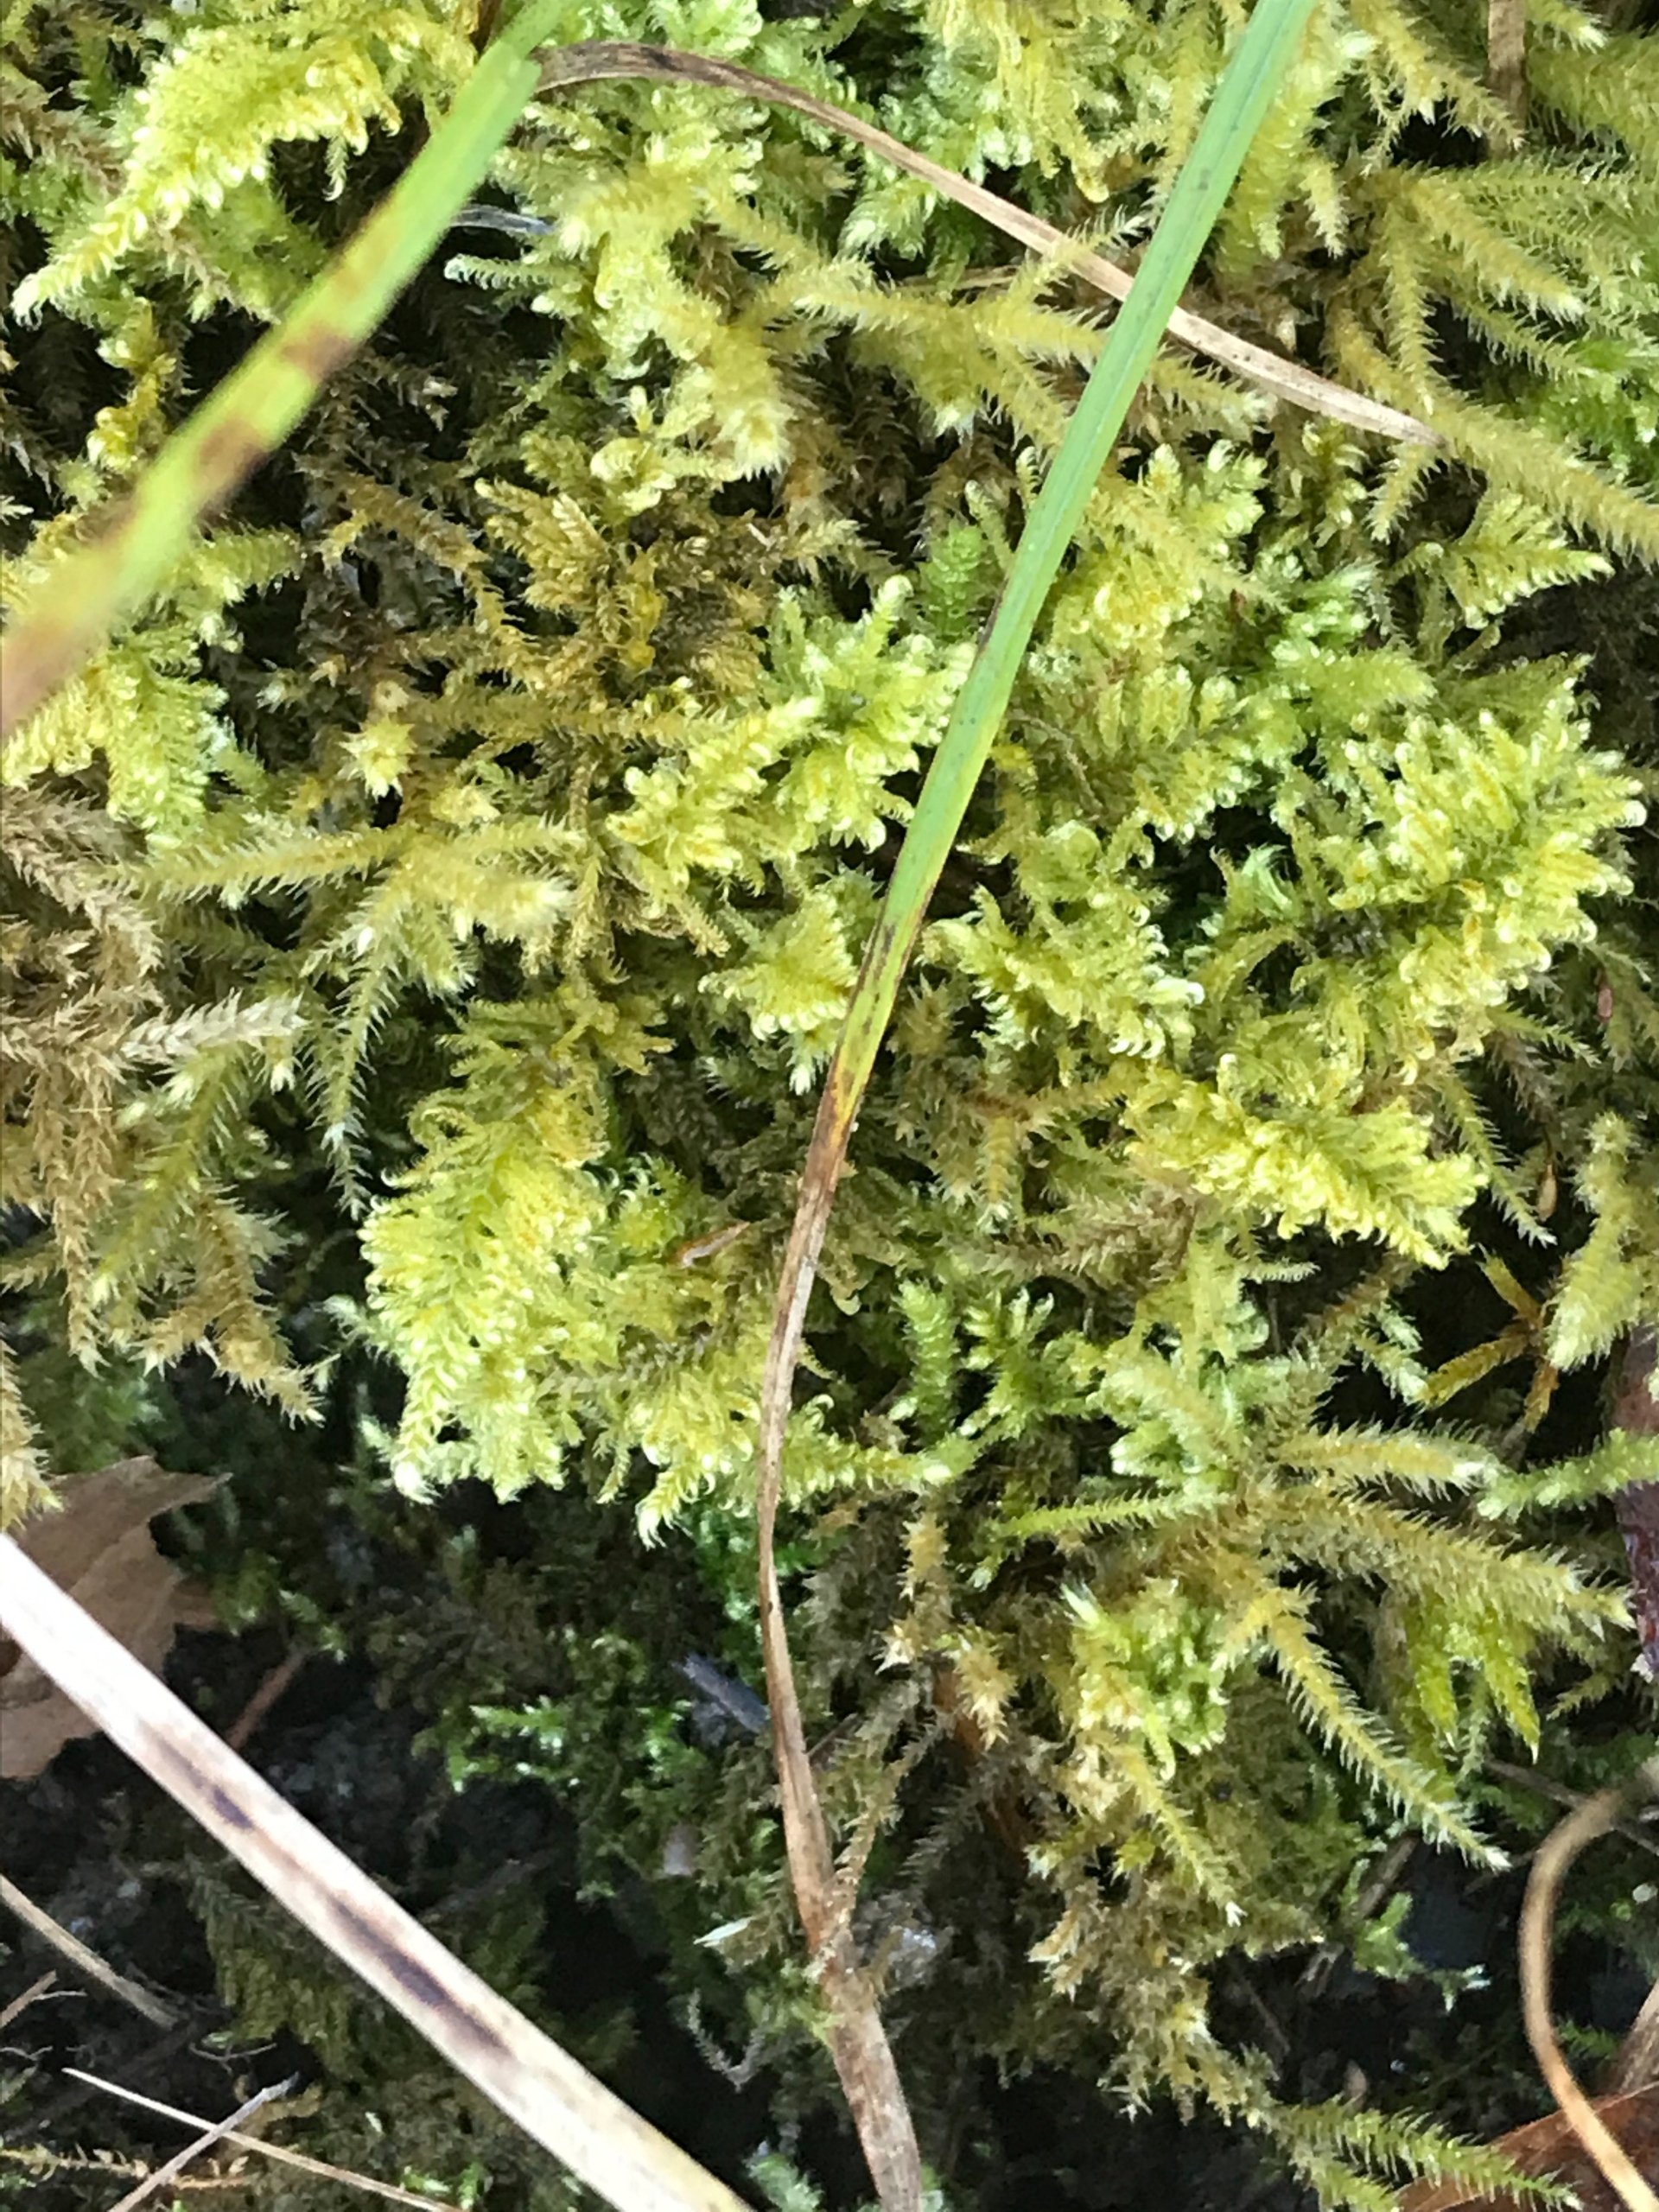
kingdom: Plantae
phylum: Bryophyta
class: Bryopsida
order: Hypnales
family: Myuriaceae
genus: Ctenidium
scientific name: Ctenidium molluscum
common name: Kalk-blødmos
